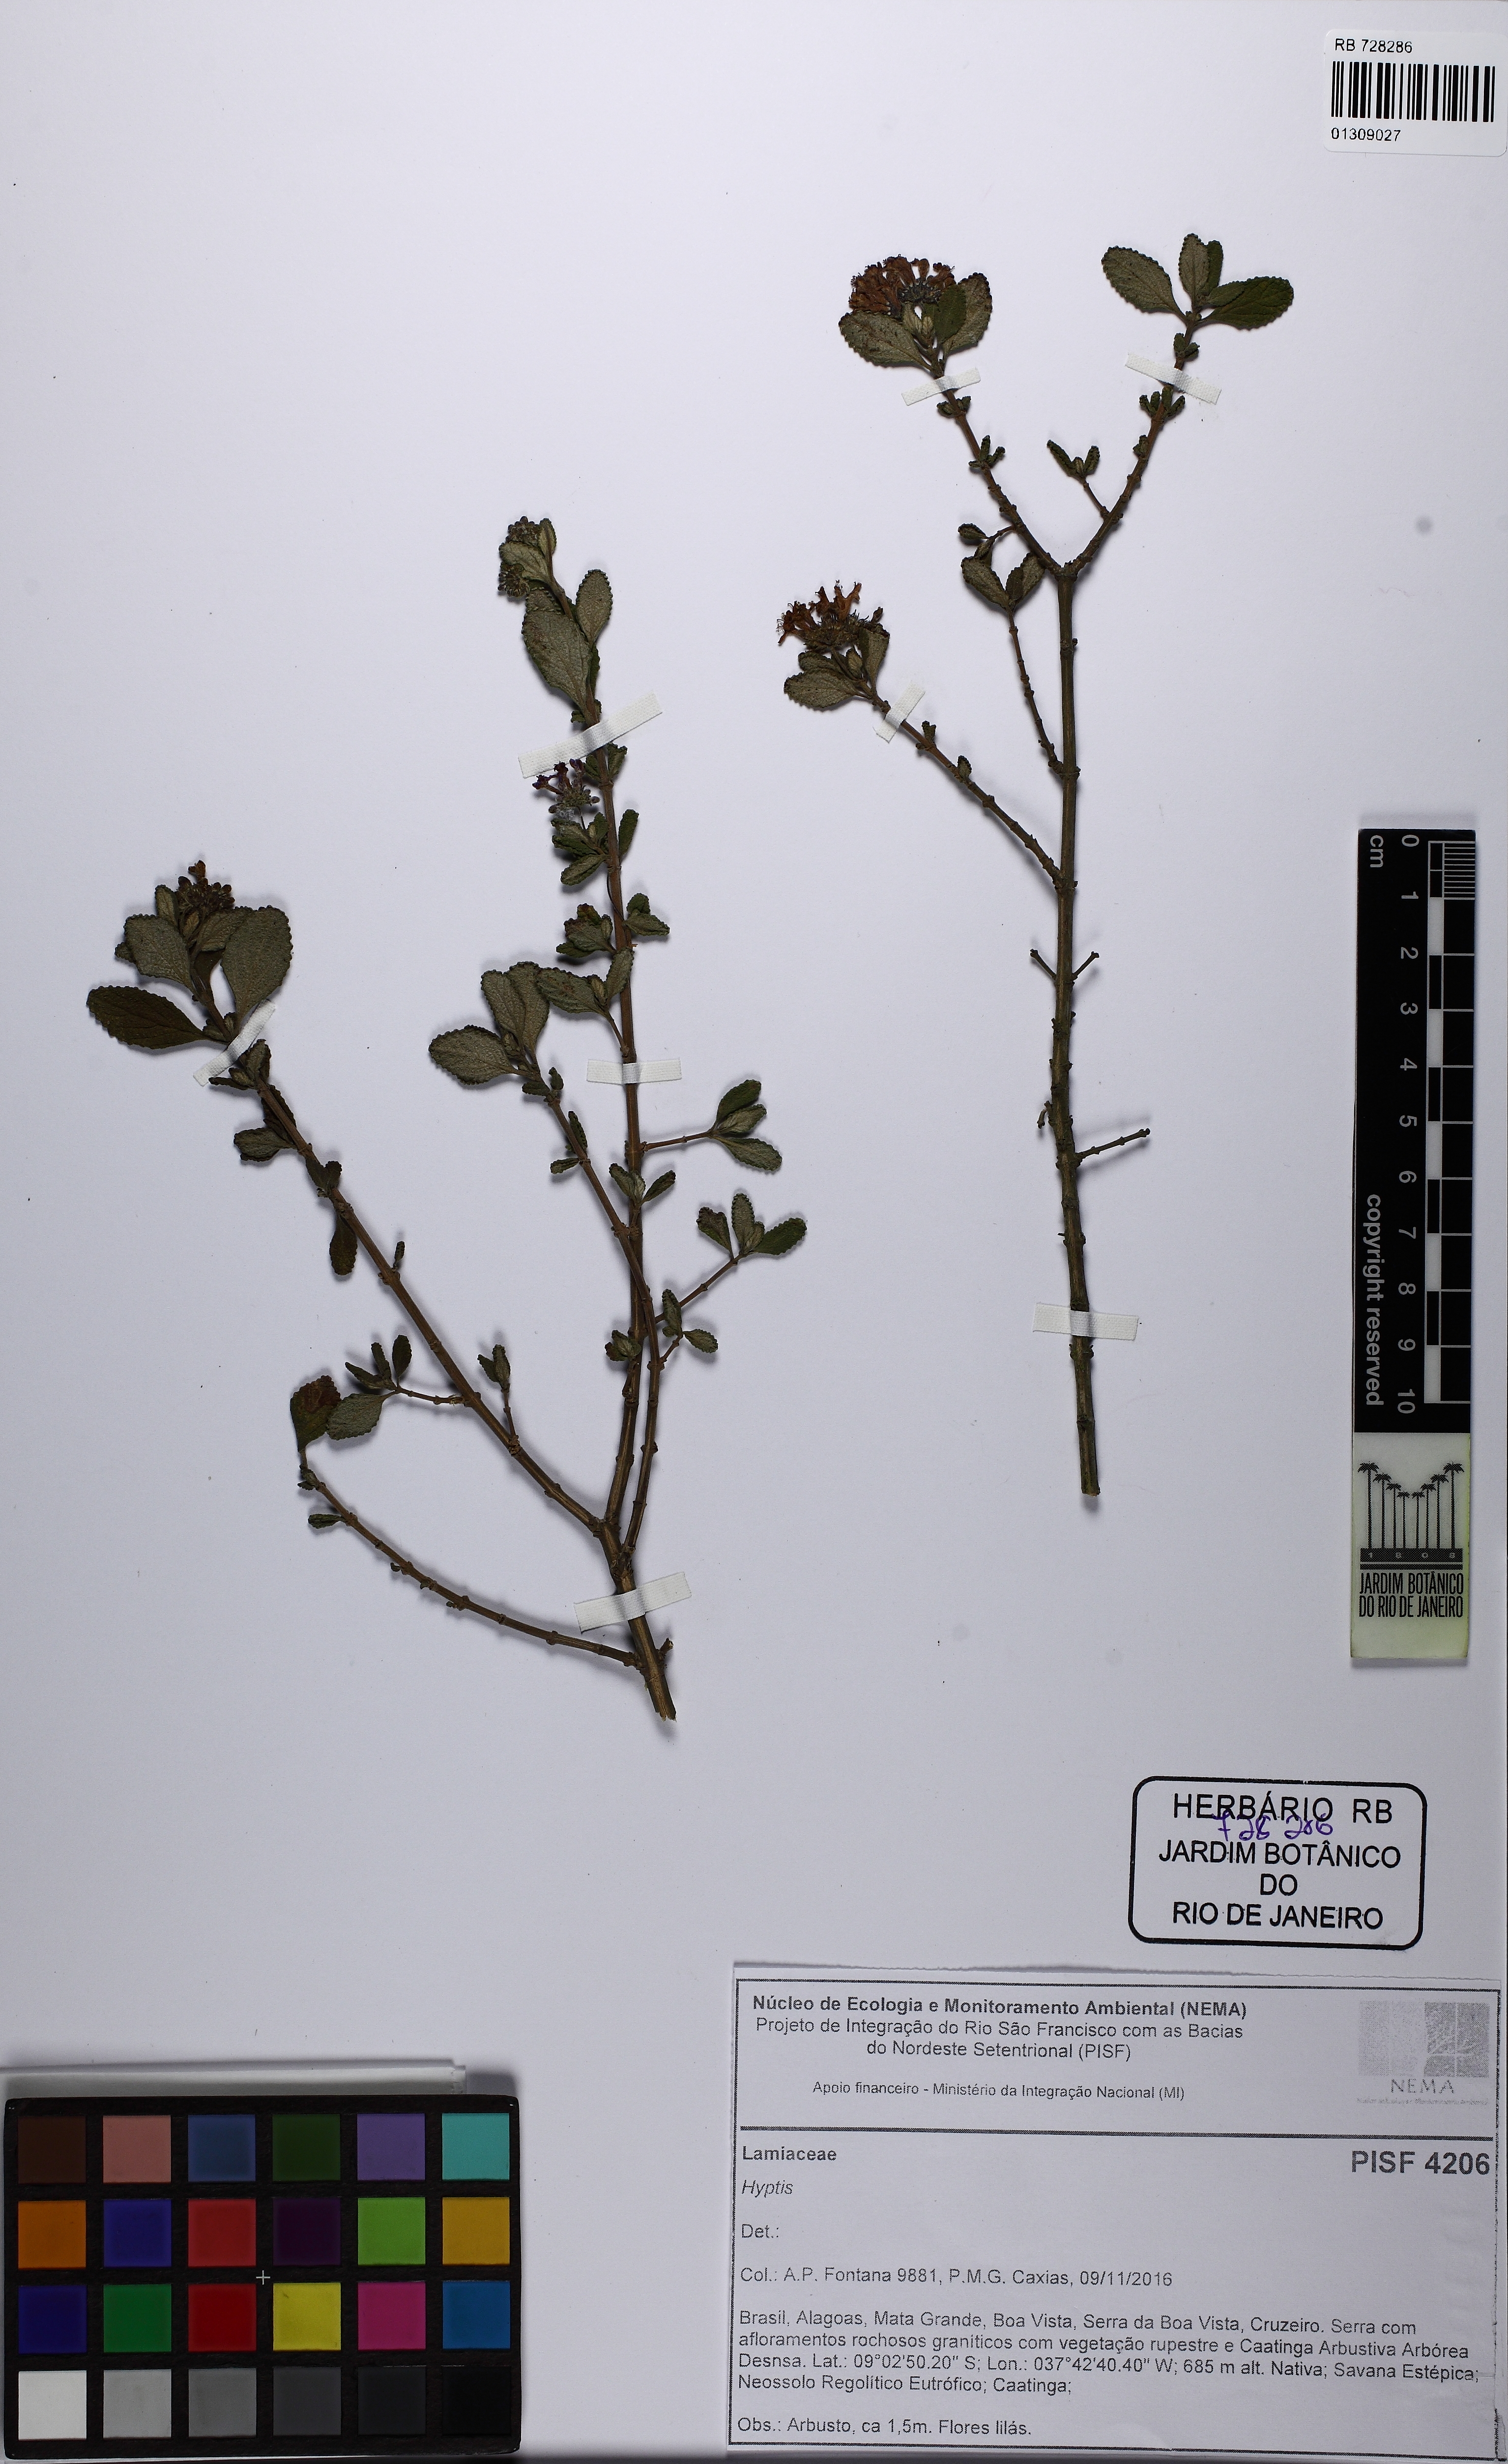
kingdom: Plantae
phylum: Tracheophyta
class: Magnoliopsida
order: Lamiales
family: Lamiaceae
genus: Eplingiella
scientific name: Eplingiella fruticosa
